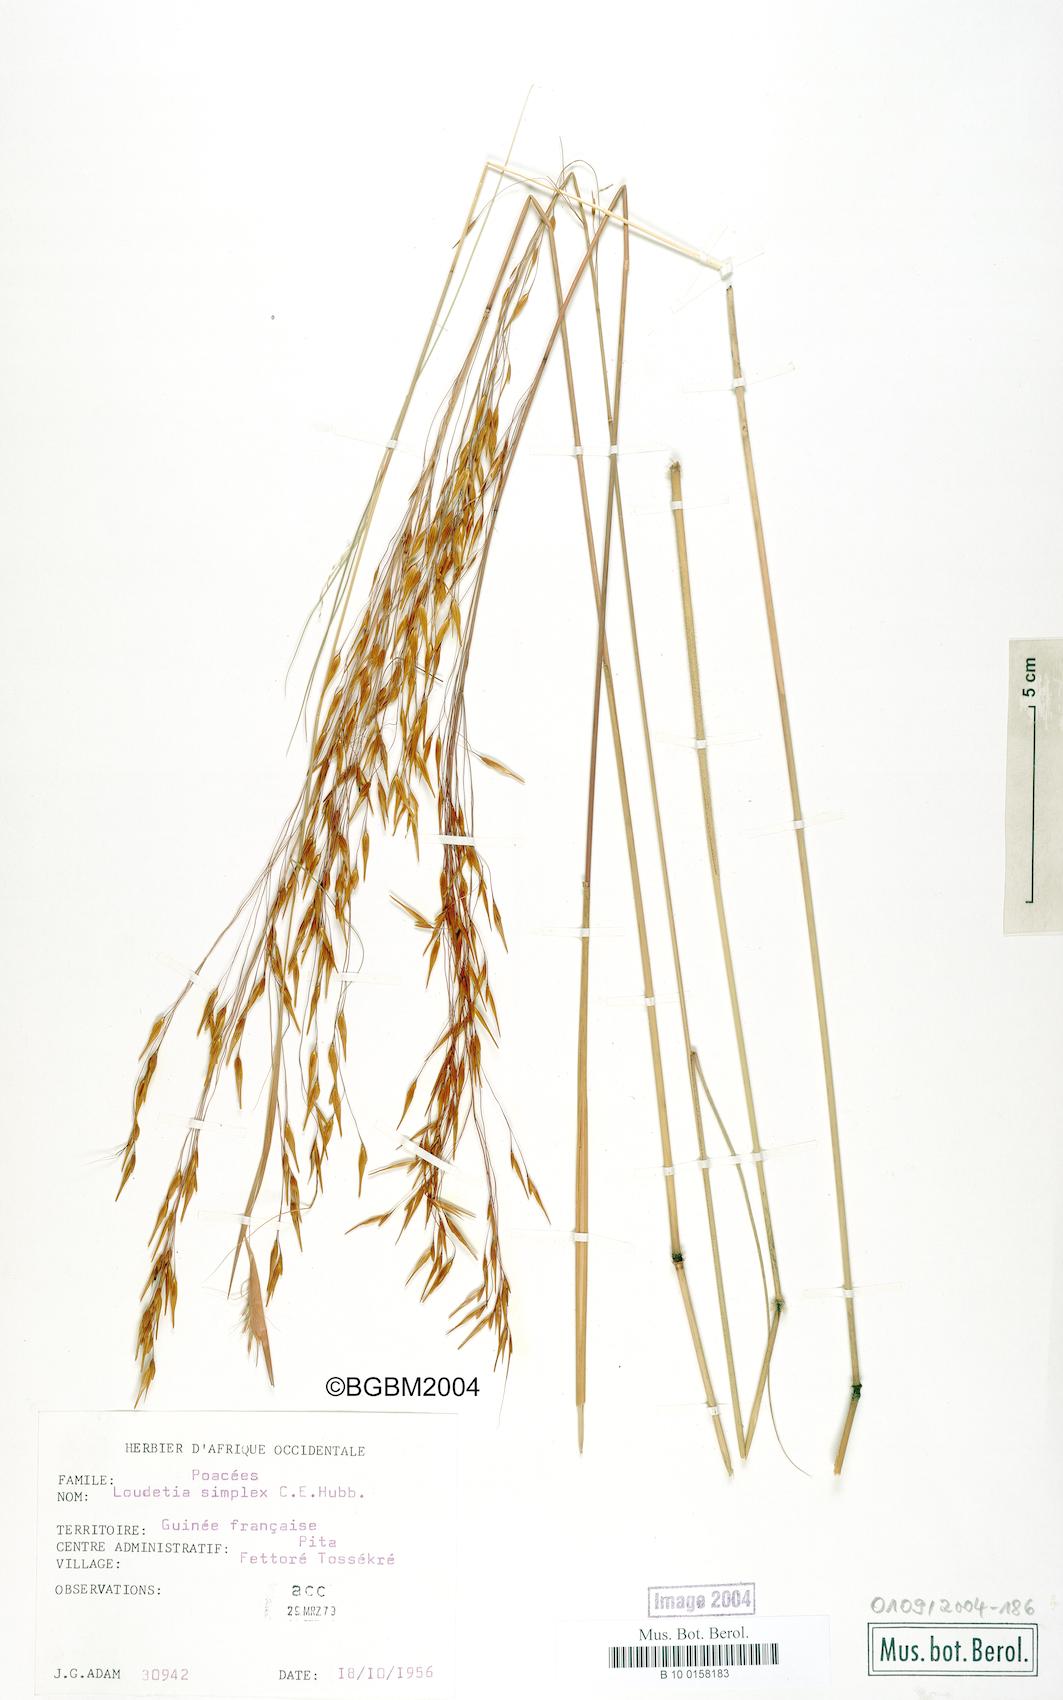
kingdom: Plantae
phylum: Tracheophyta
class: Liliopsida
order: Poales
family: Poaceae
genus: Loudetia
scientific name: Loudetia simplex
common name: Common russet grass
